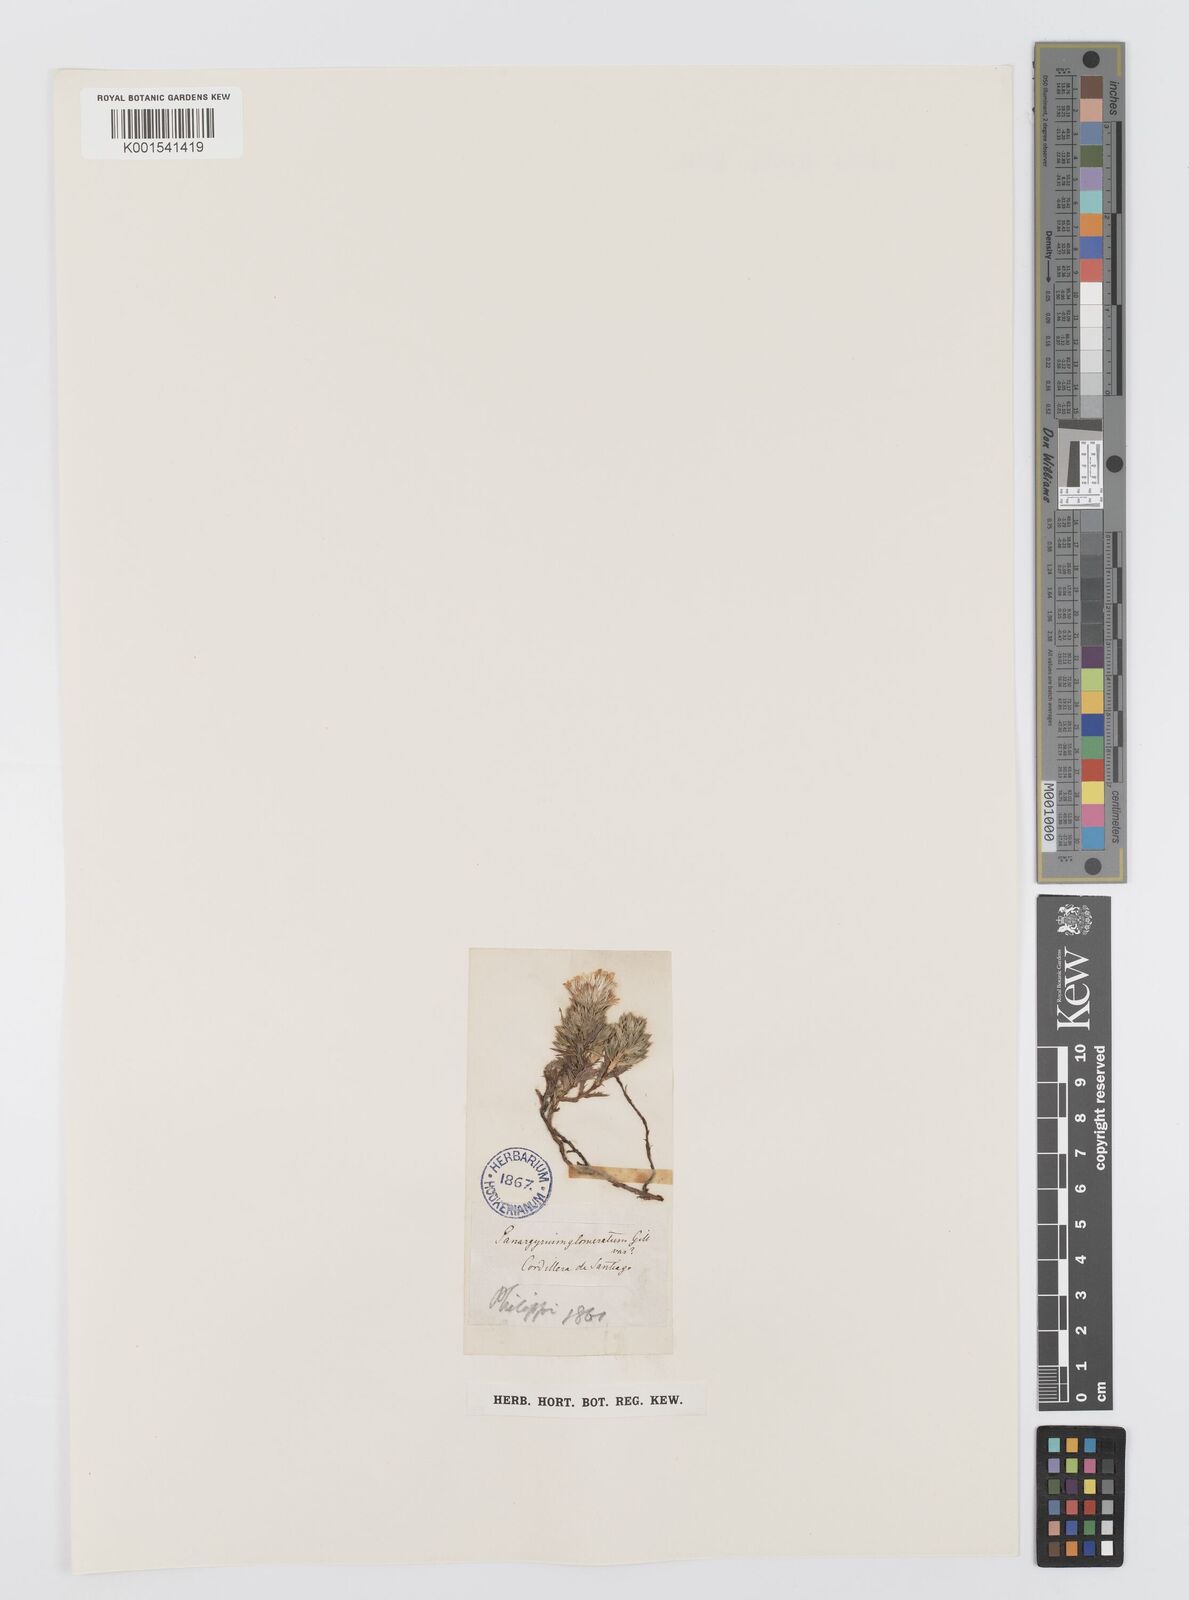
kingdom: Plantae
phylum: Tracheophyta
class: Magnoliopsida
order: Asterales
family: Asteraceae
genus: Nassauvia
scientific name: Nassauvia glomerata
